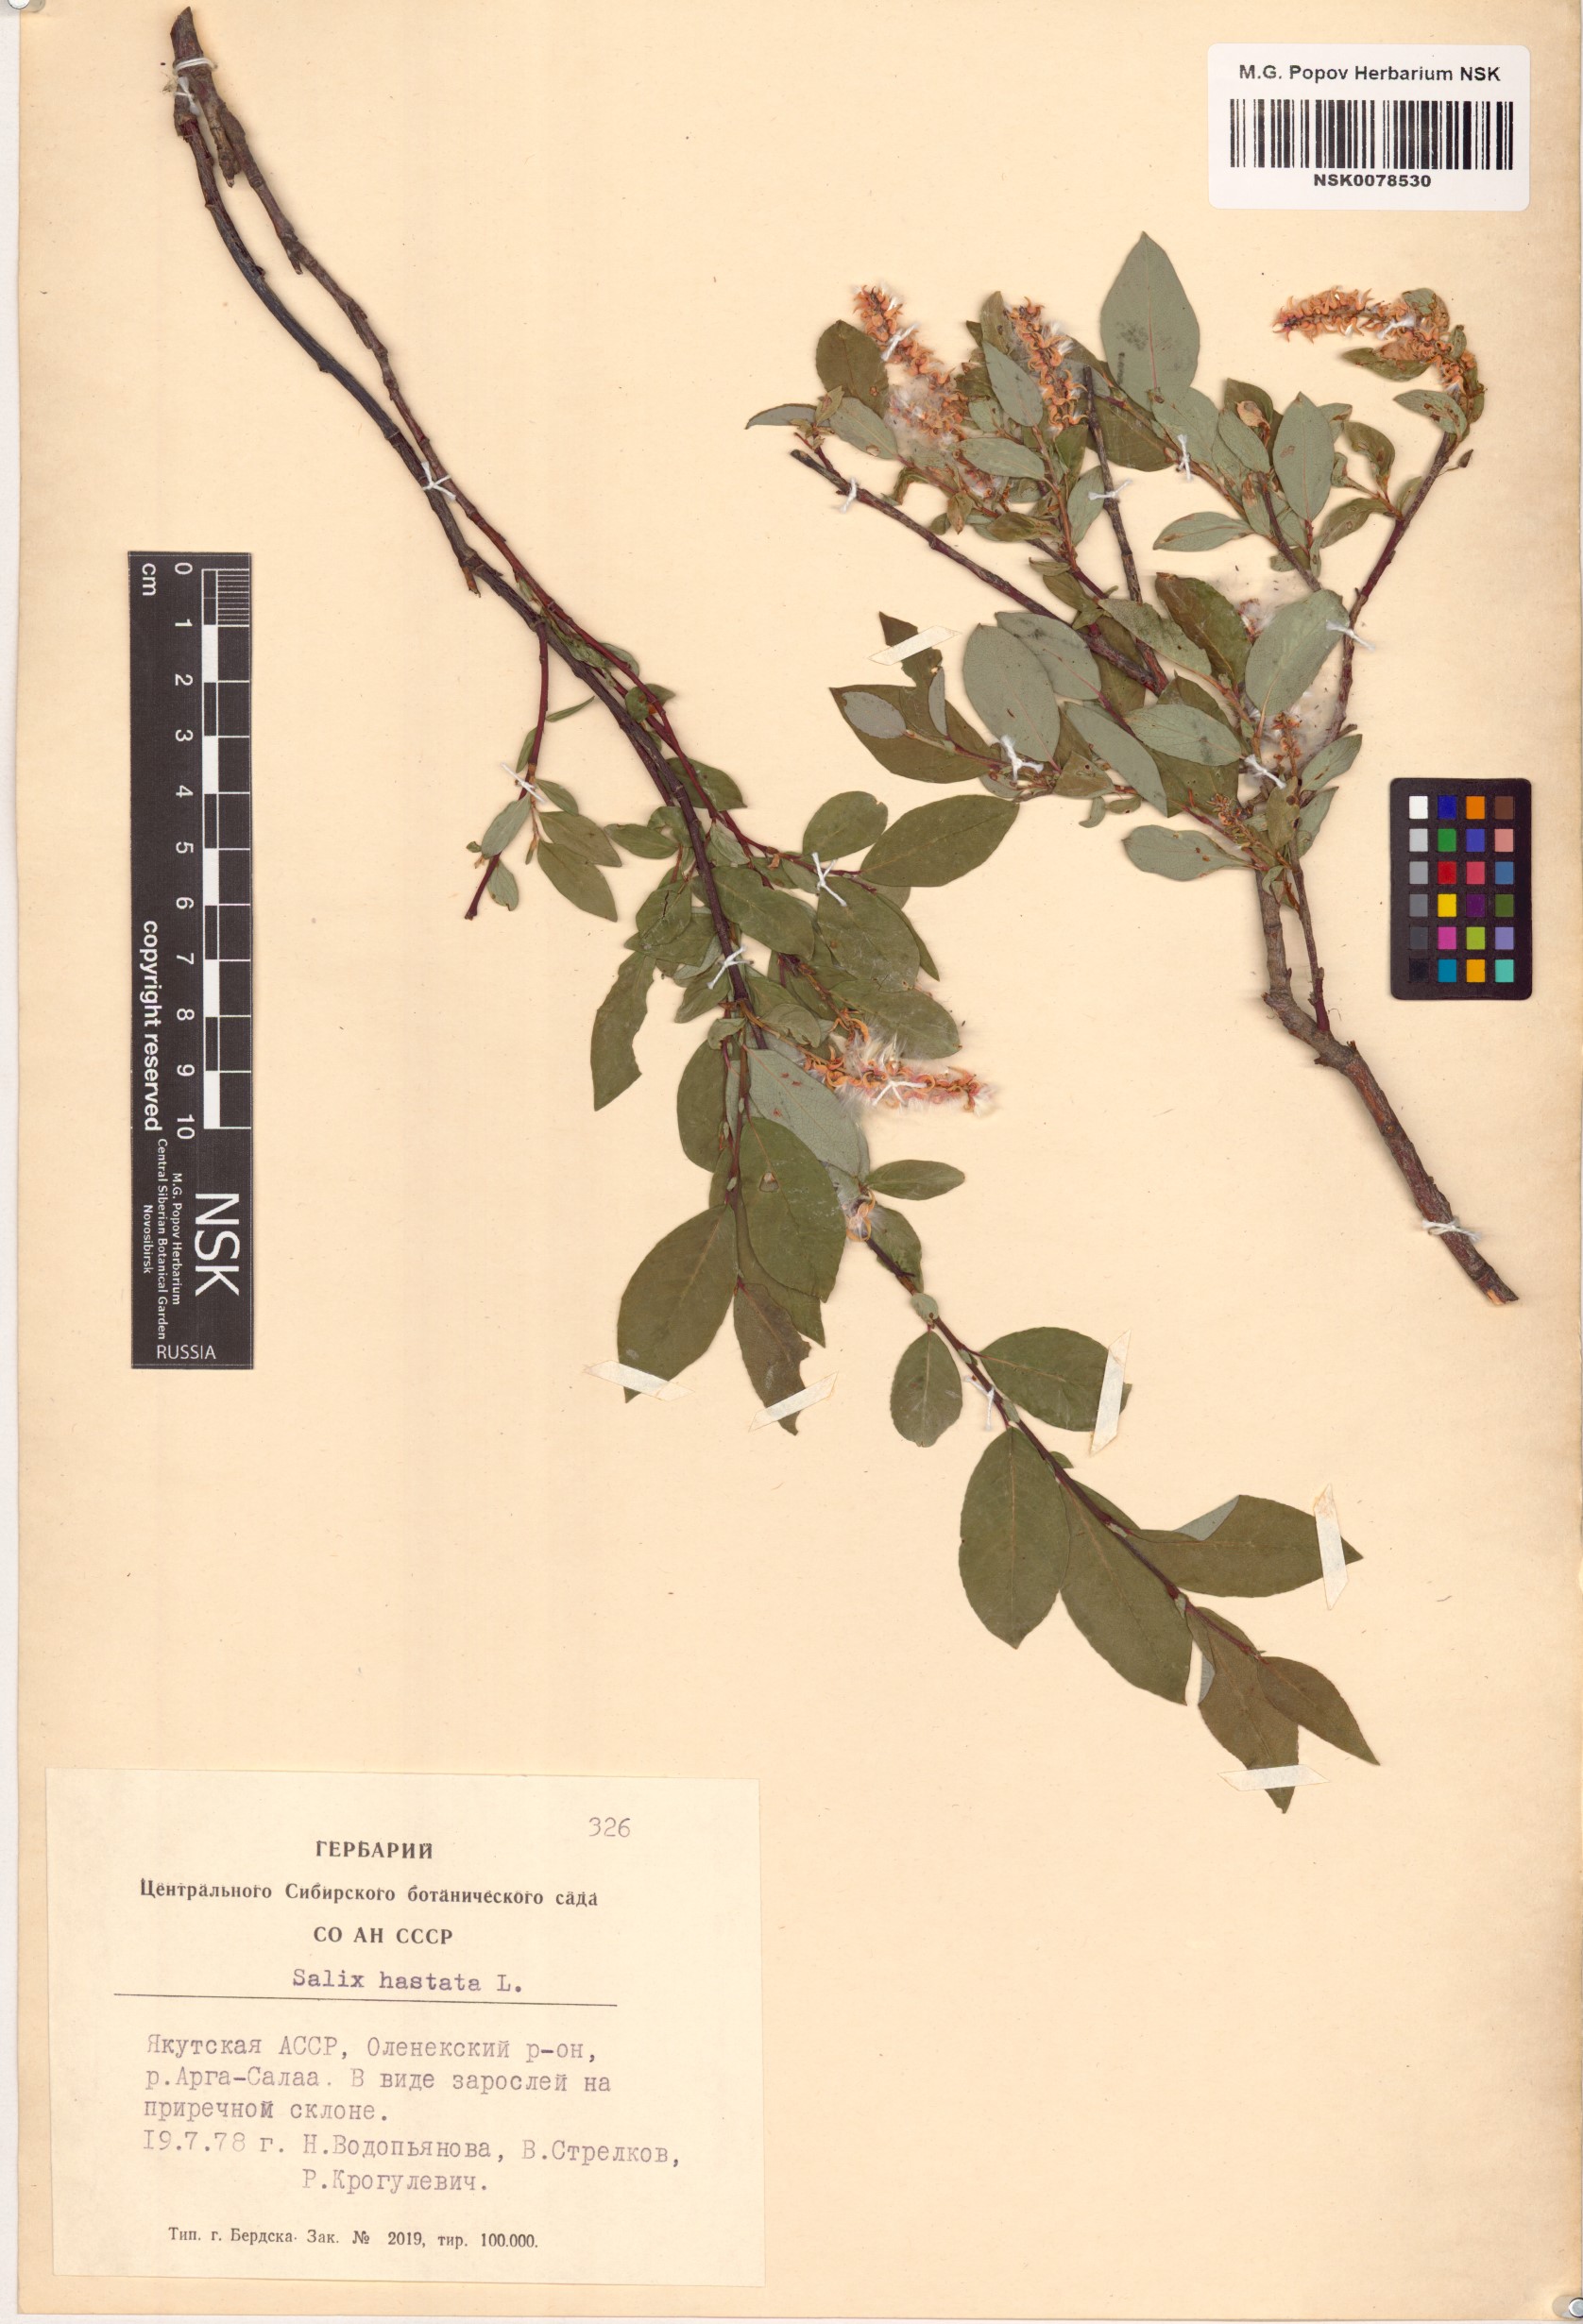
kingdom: Plantae
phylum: Tracheophyta
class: Magnoliopsida
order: Malpighiales
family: Salicaceae
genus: Salix
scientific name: Salix hastata
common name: Halberd willow
